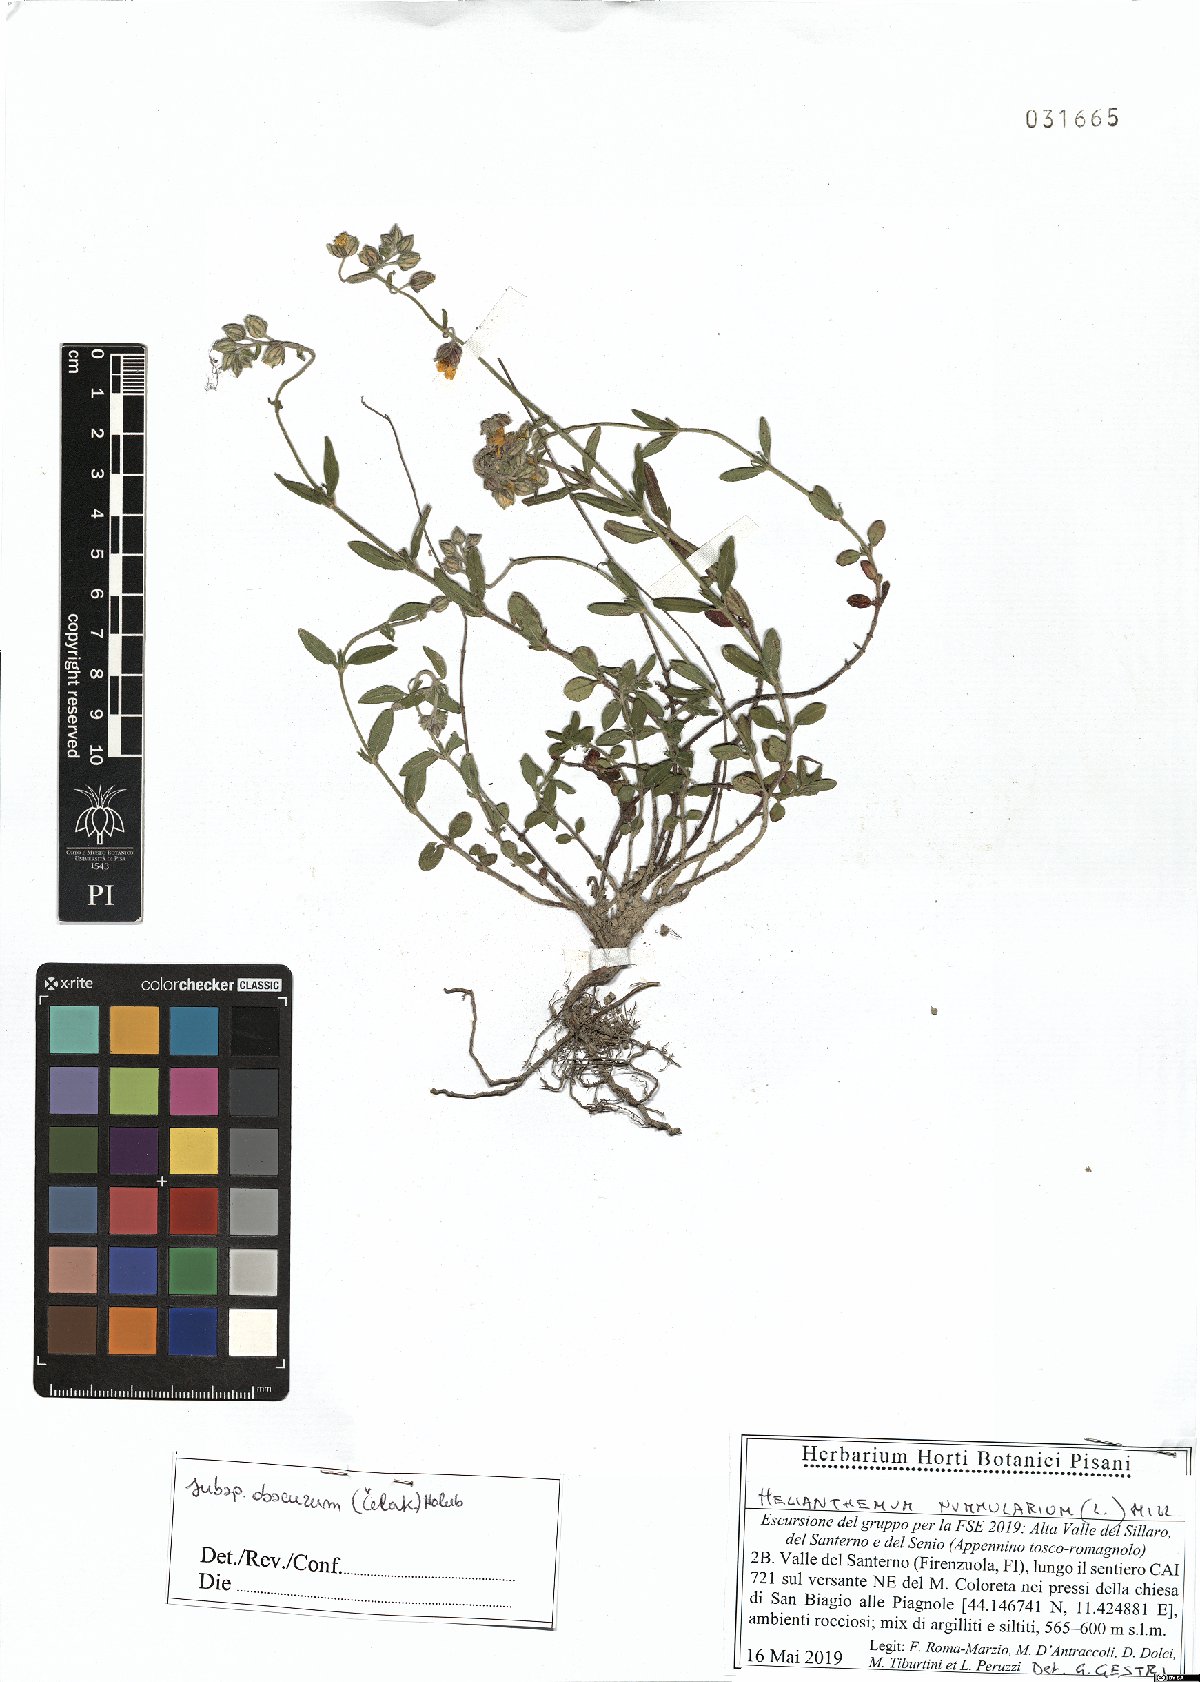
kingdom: Plantae
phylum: Tracheophyta
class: Magnoliopsida
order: Malvales
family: Cistaceae
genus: Helianthemum
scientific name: Helianthemum nummularium
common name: Common rock-rose
